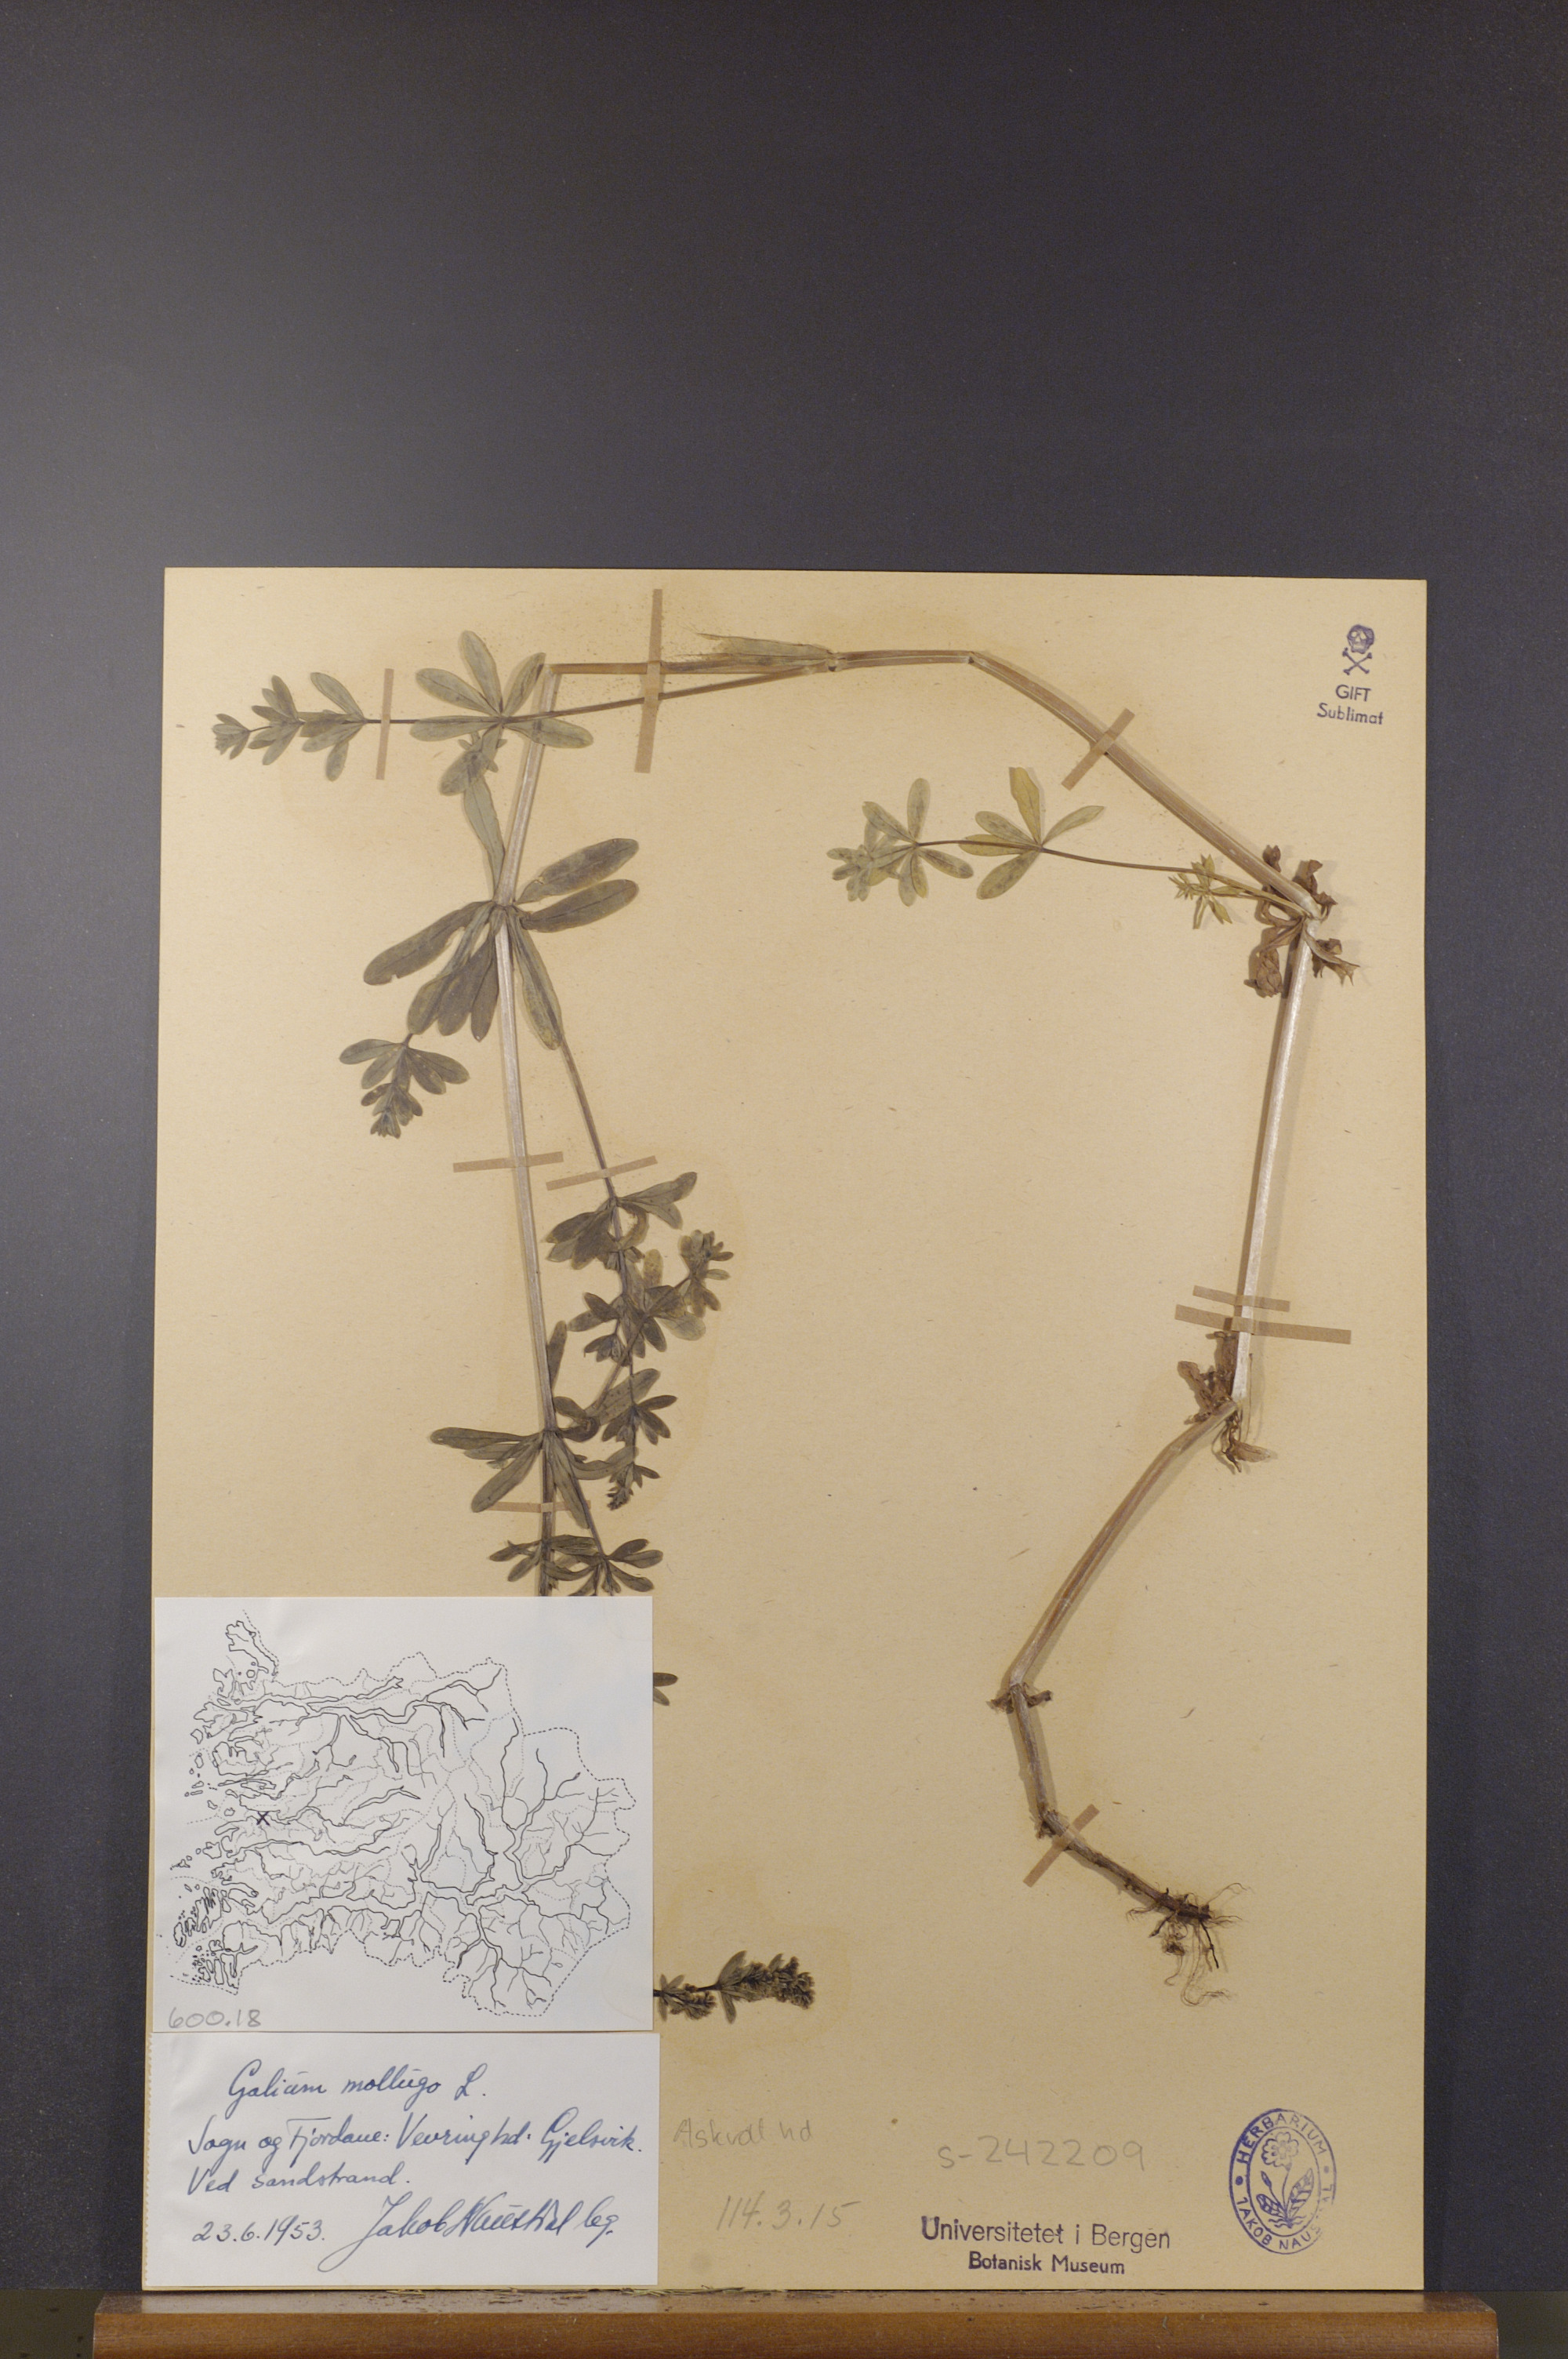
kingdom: Plantae
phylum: Tracheophyta
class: Magnoliopsida
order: Gentianales
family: Rubiaceae
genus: Galium
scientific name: Galium mollugo
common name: Hedge bedstraw
